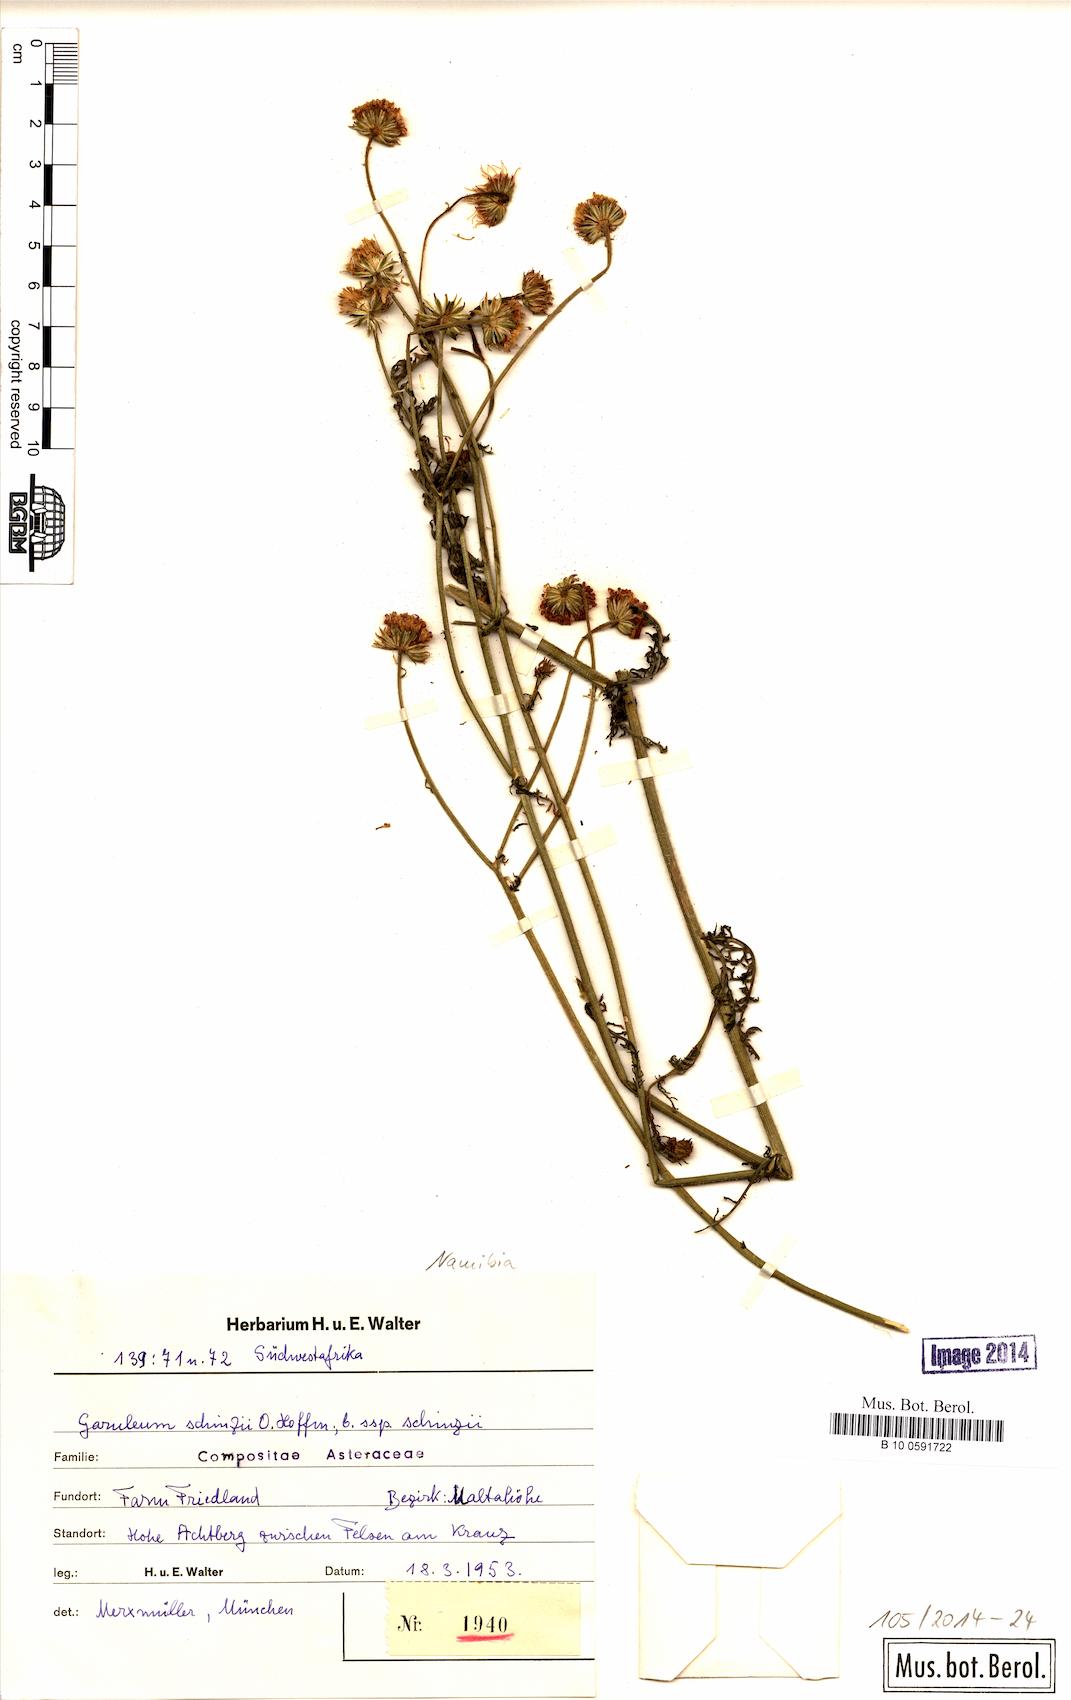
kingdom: Plantae
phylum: Tracheophyta
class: Magnoliopsida
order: Asterales
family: Asteraceae
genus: Garuleum
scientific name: Garuleum schinzii
